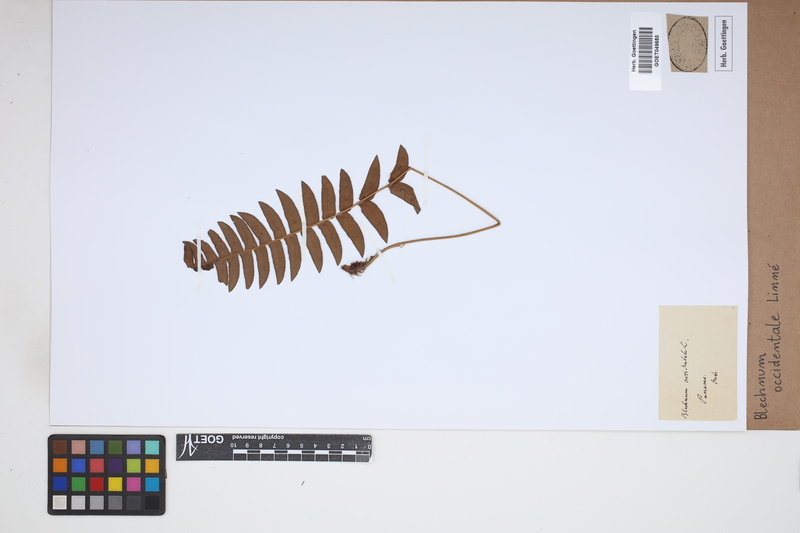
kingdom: Plantae
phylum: Tracheophyta
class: Polypodiopsida
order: Polypodiales
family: Blechnaceae
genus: Blechnum
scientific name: Blechnum occidentale
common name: Hammock fern
